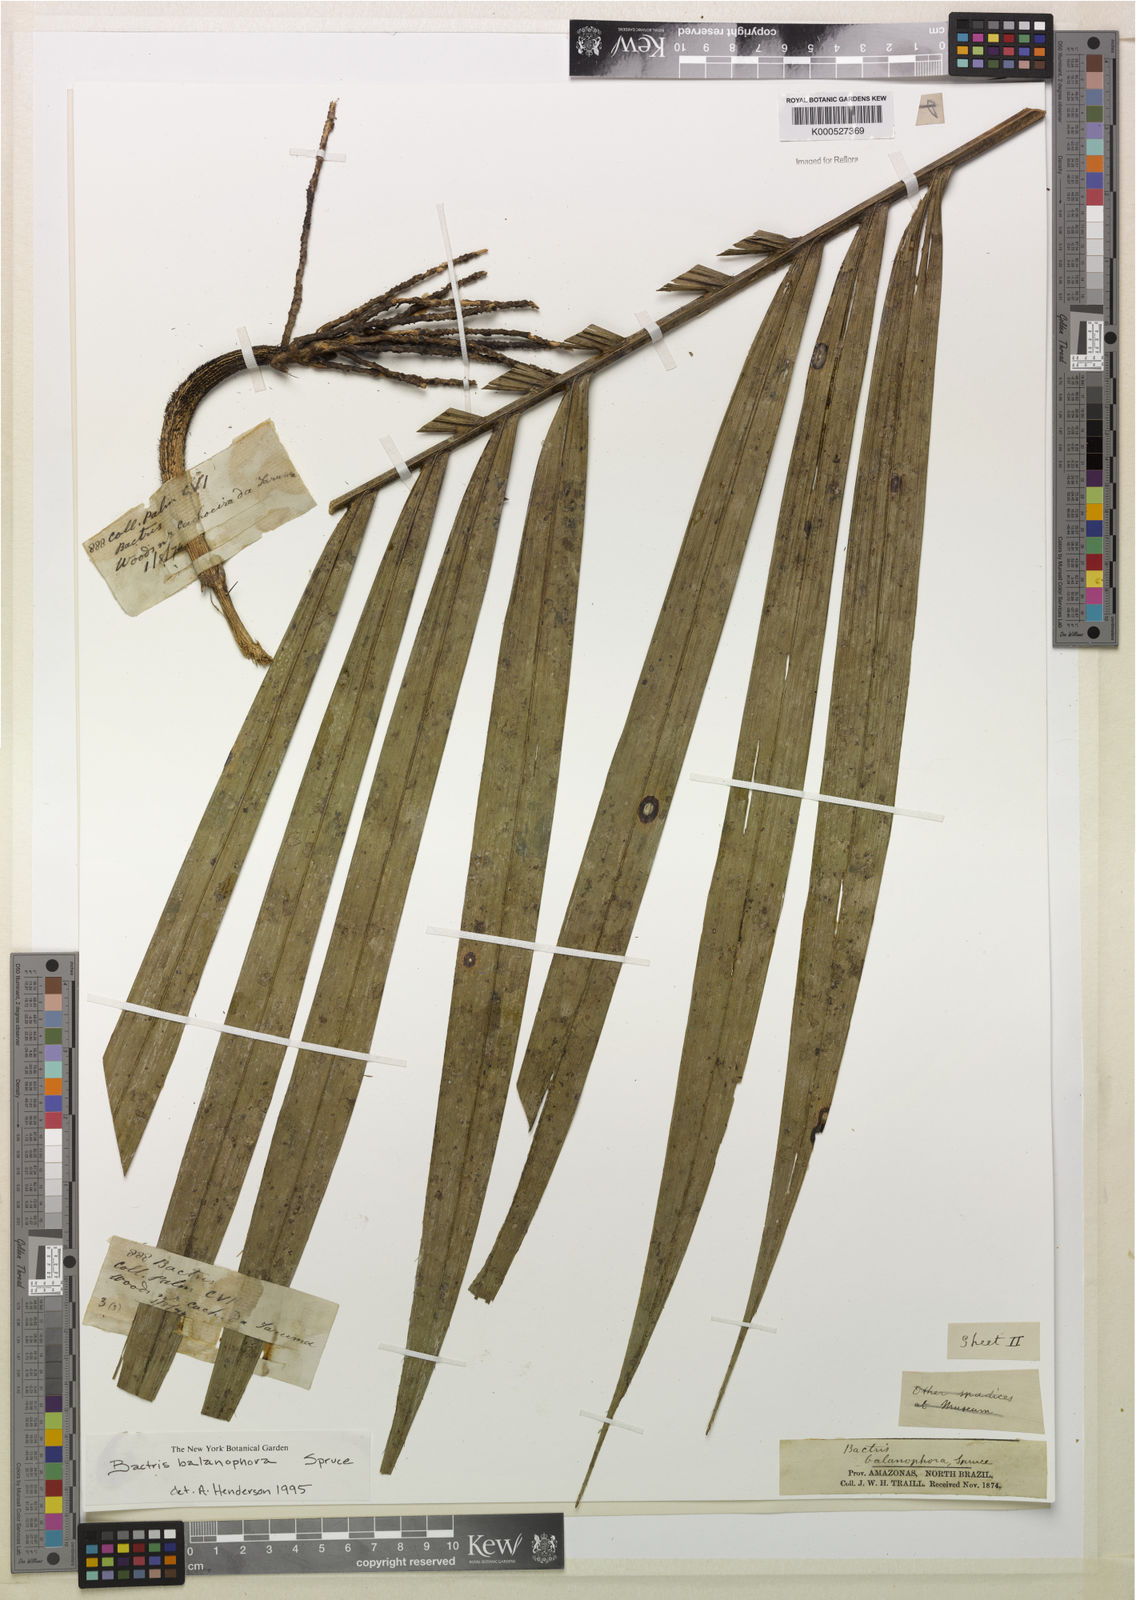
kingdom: Plantae
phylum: Tracheophyta
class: Liliopsida
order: Arecales
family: Arecaceae
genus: Bactris
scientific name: Bactris balanophora
